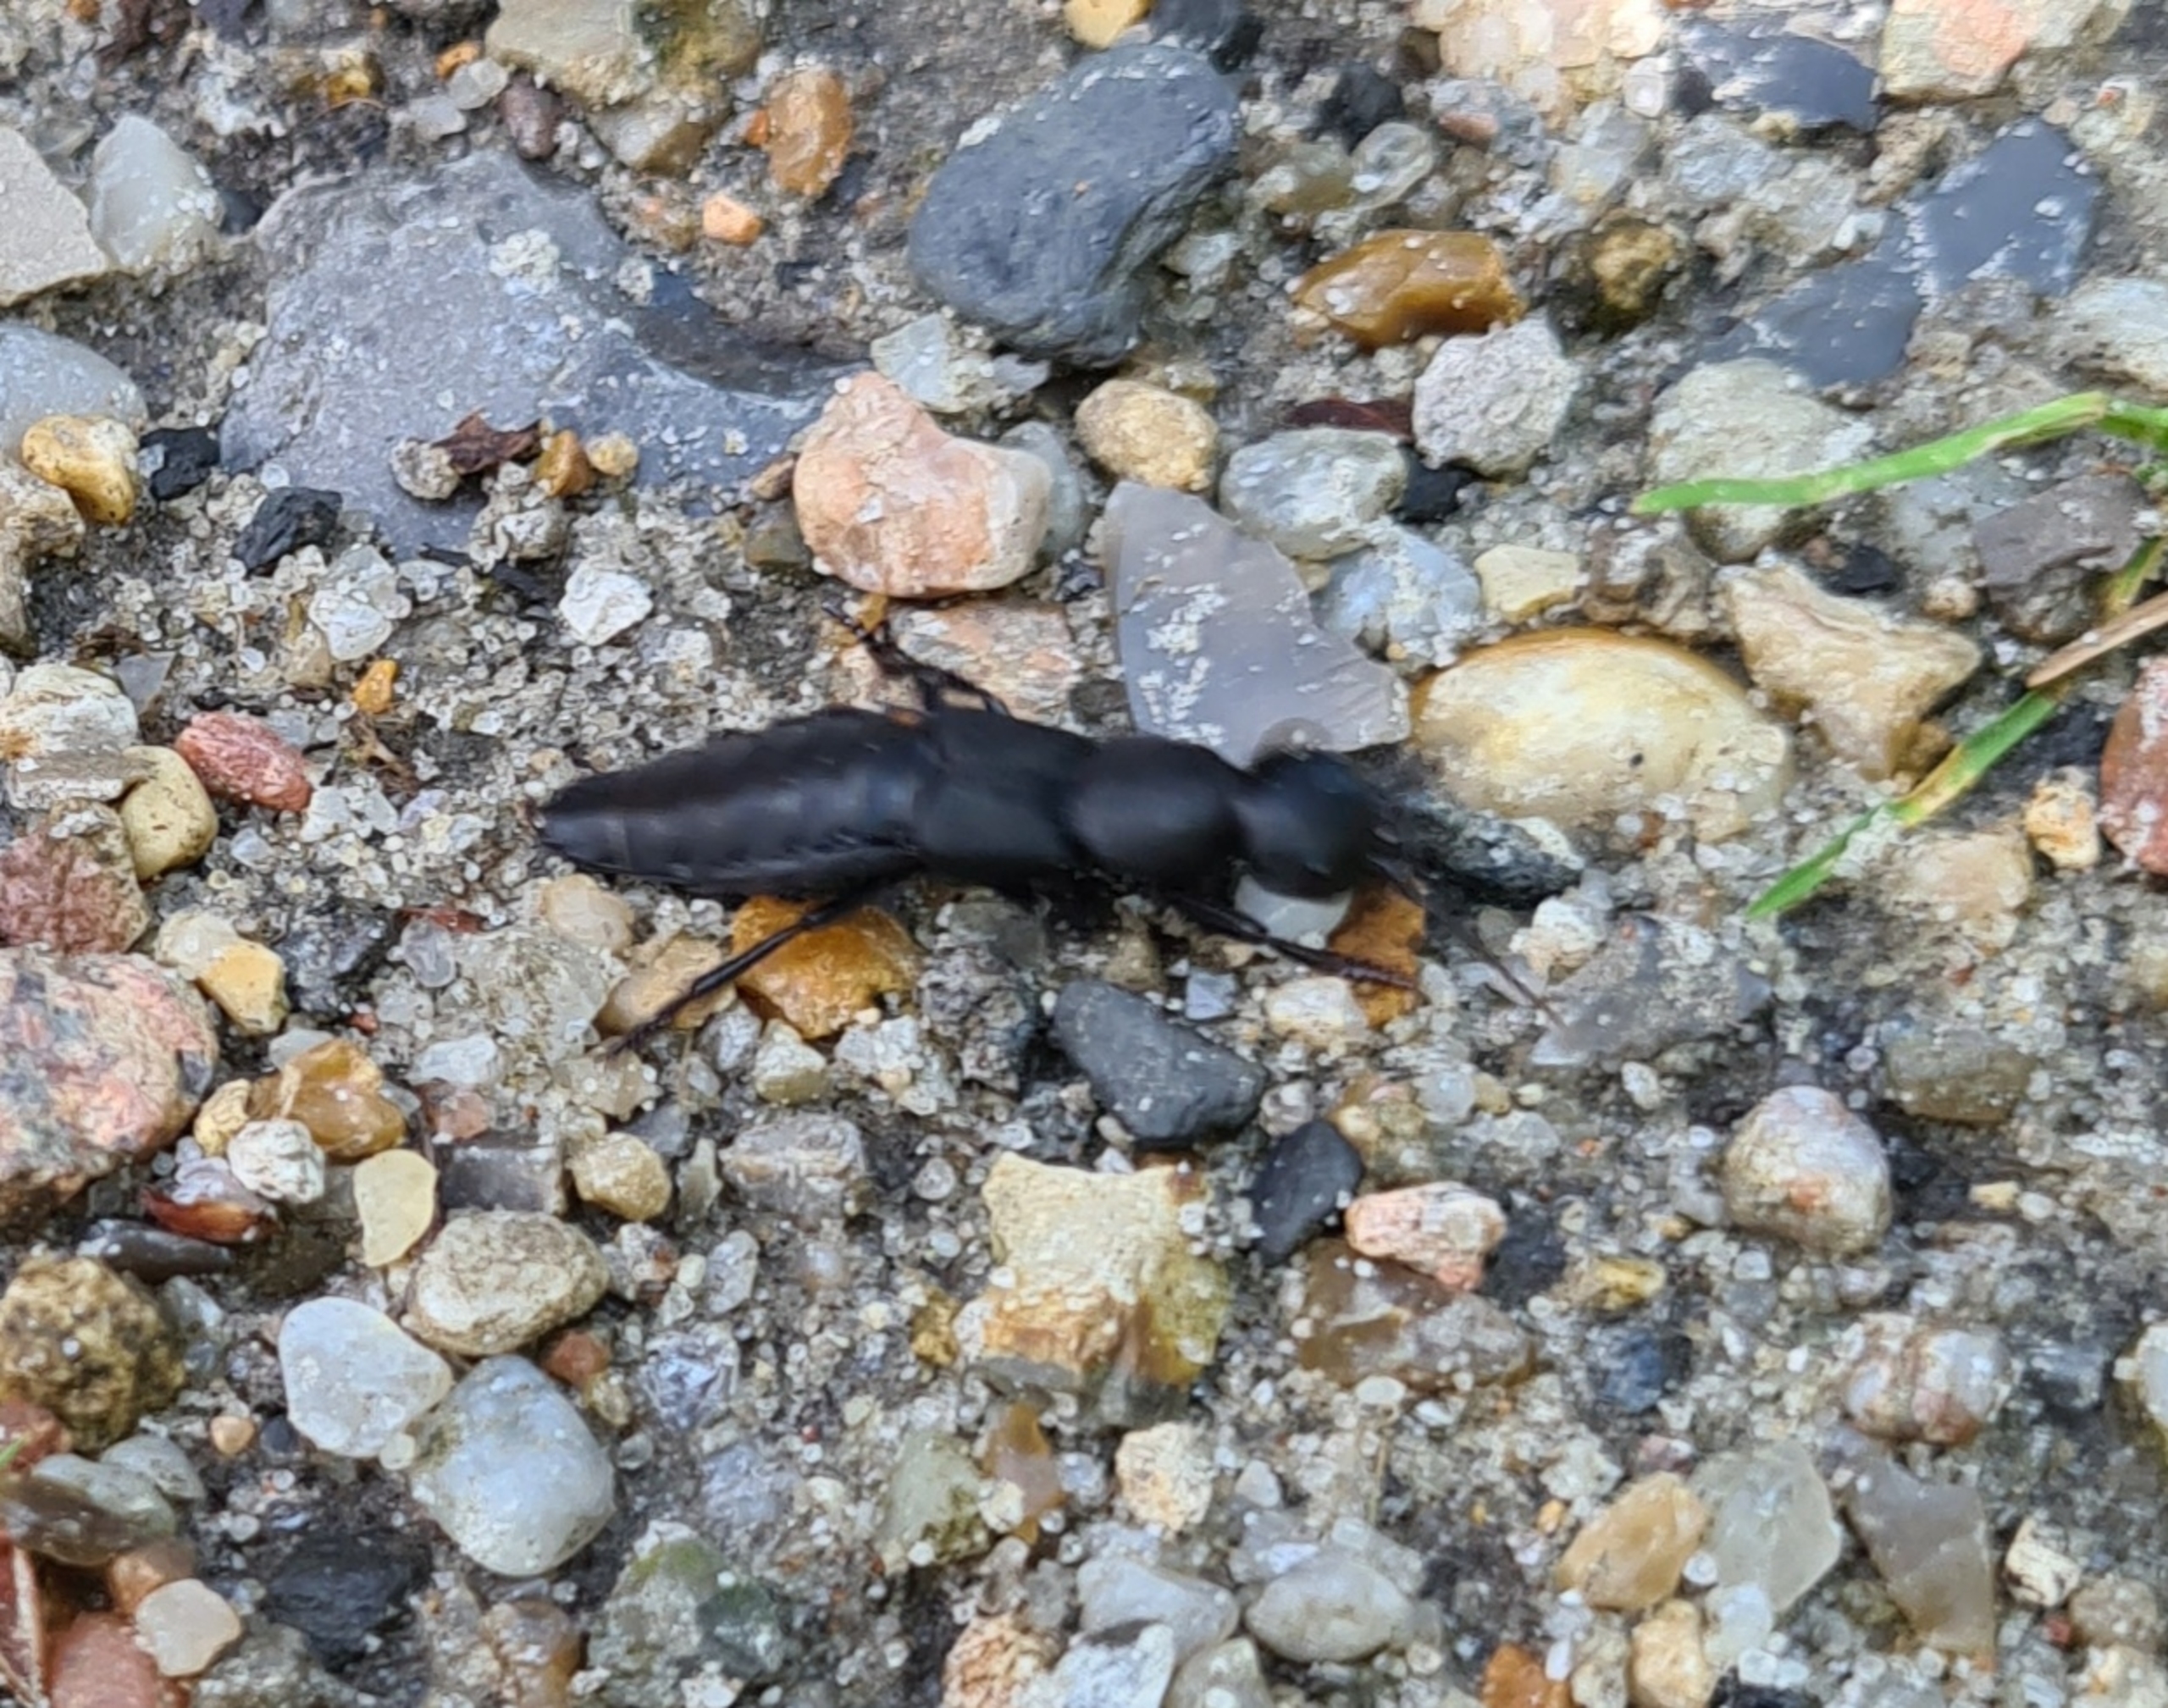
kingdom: Animalia
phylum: Arthropoda
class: Insecta
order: Coleoptera
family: Staphylinidae
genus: Ocypus
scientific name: Ocypus olens
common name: Stor rovbille
